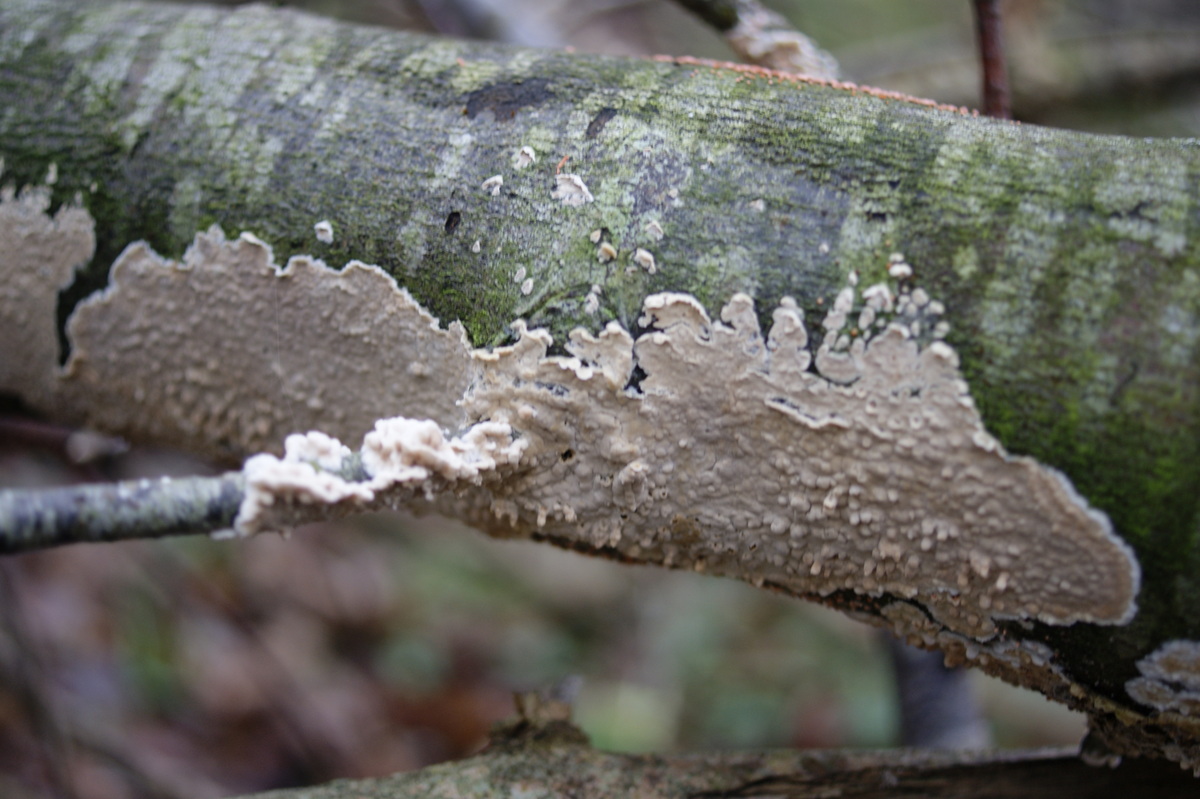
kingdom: Fungi
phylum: Basidiomycota
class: Agaricomycetes
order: Agaricales
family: Physalacriaceae
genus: Cylindrobasidium
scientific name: Cylindrobasidium evolvens
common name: sprækkehinde
